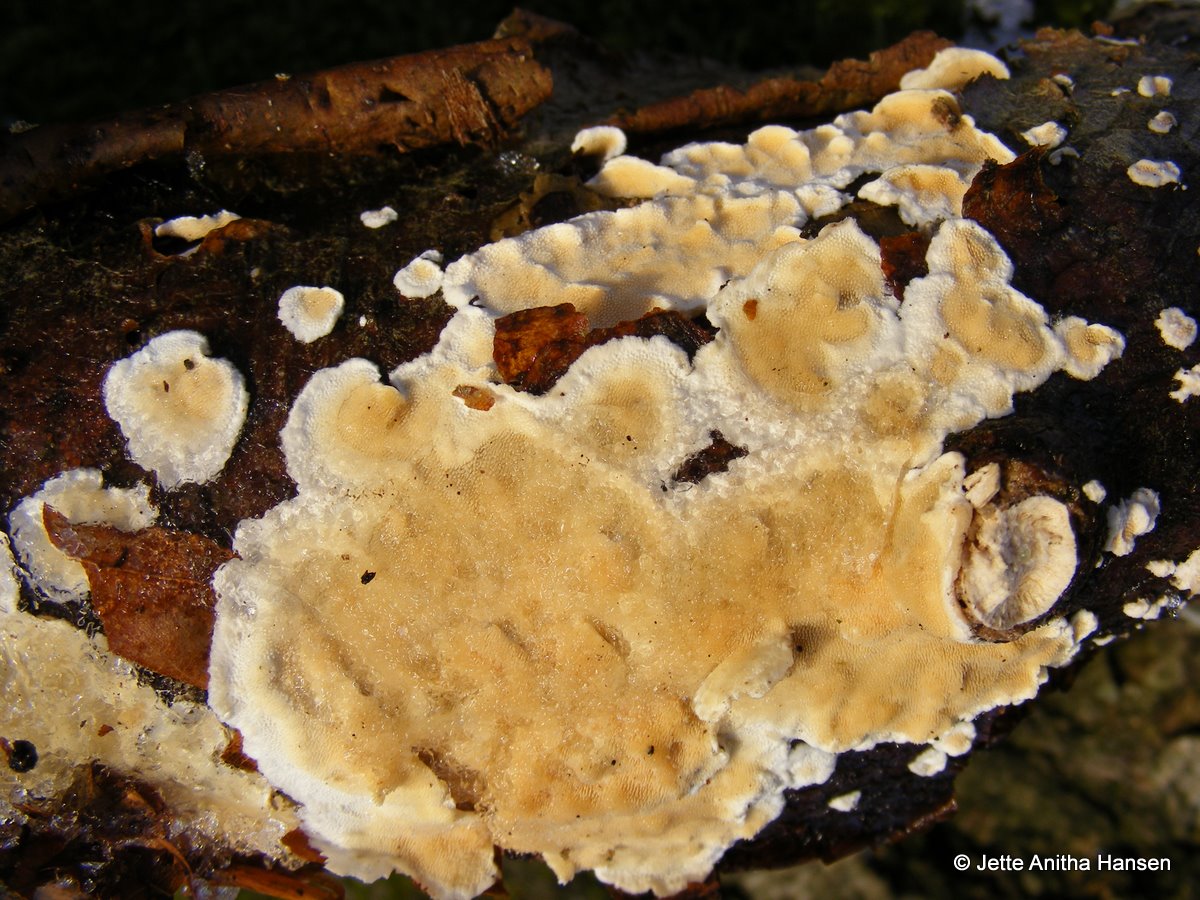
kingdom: Fungi
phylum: Basidiomycota
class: Agaricomycetes
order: Polyporales
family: Steccherinaceae
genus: Steccherinum
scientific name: Steccherinum ochraceum
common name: almindelig skønpig
